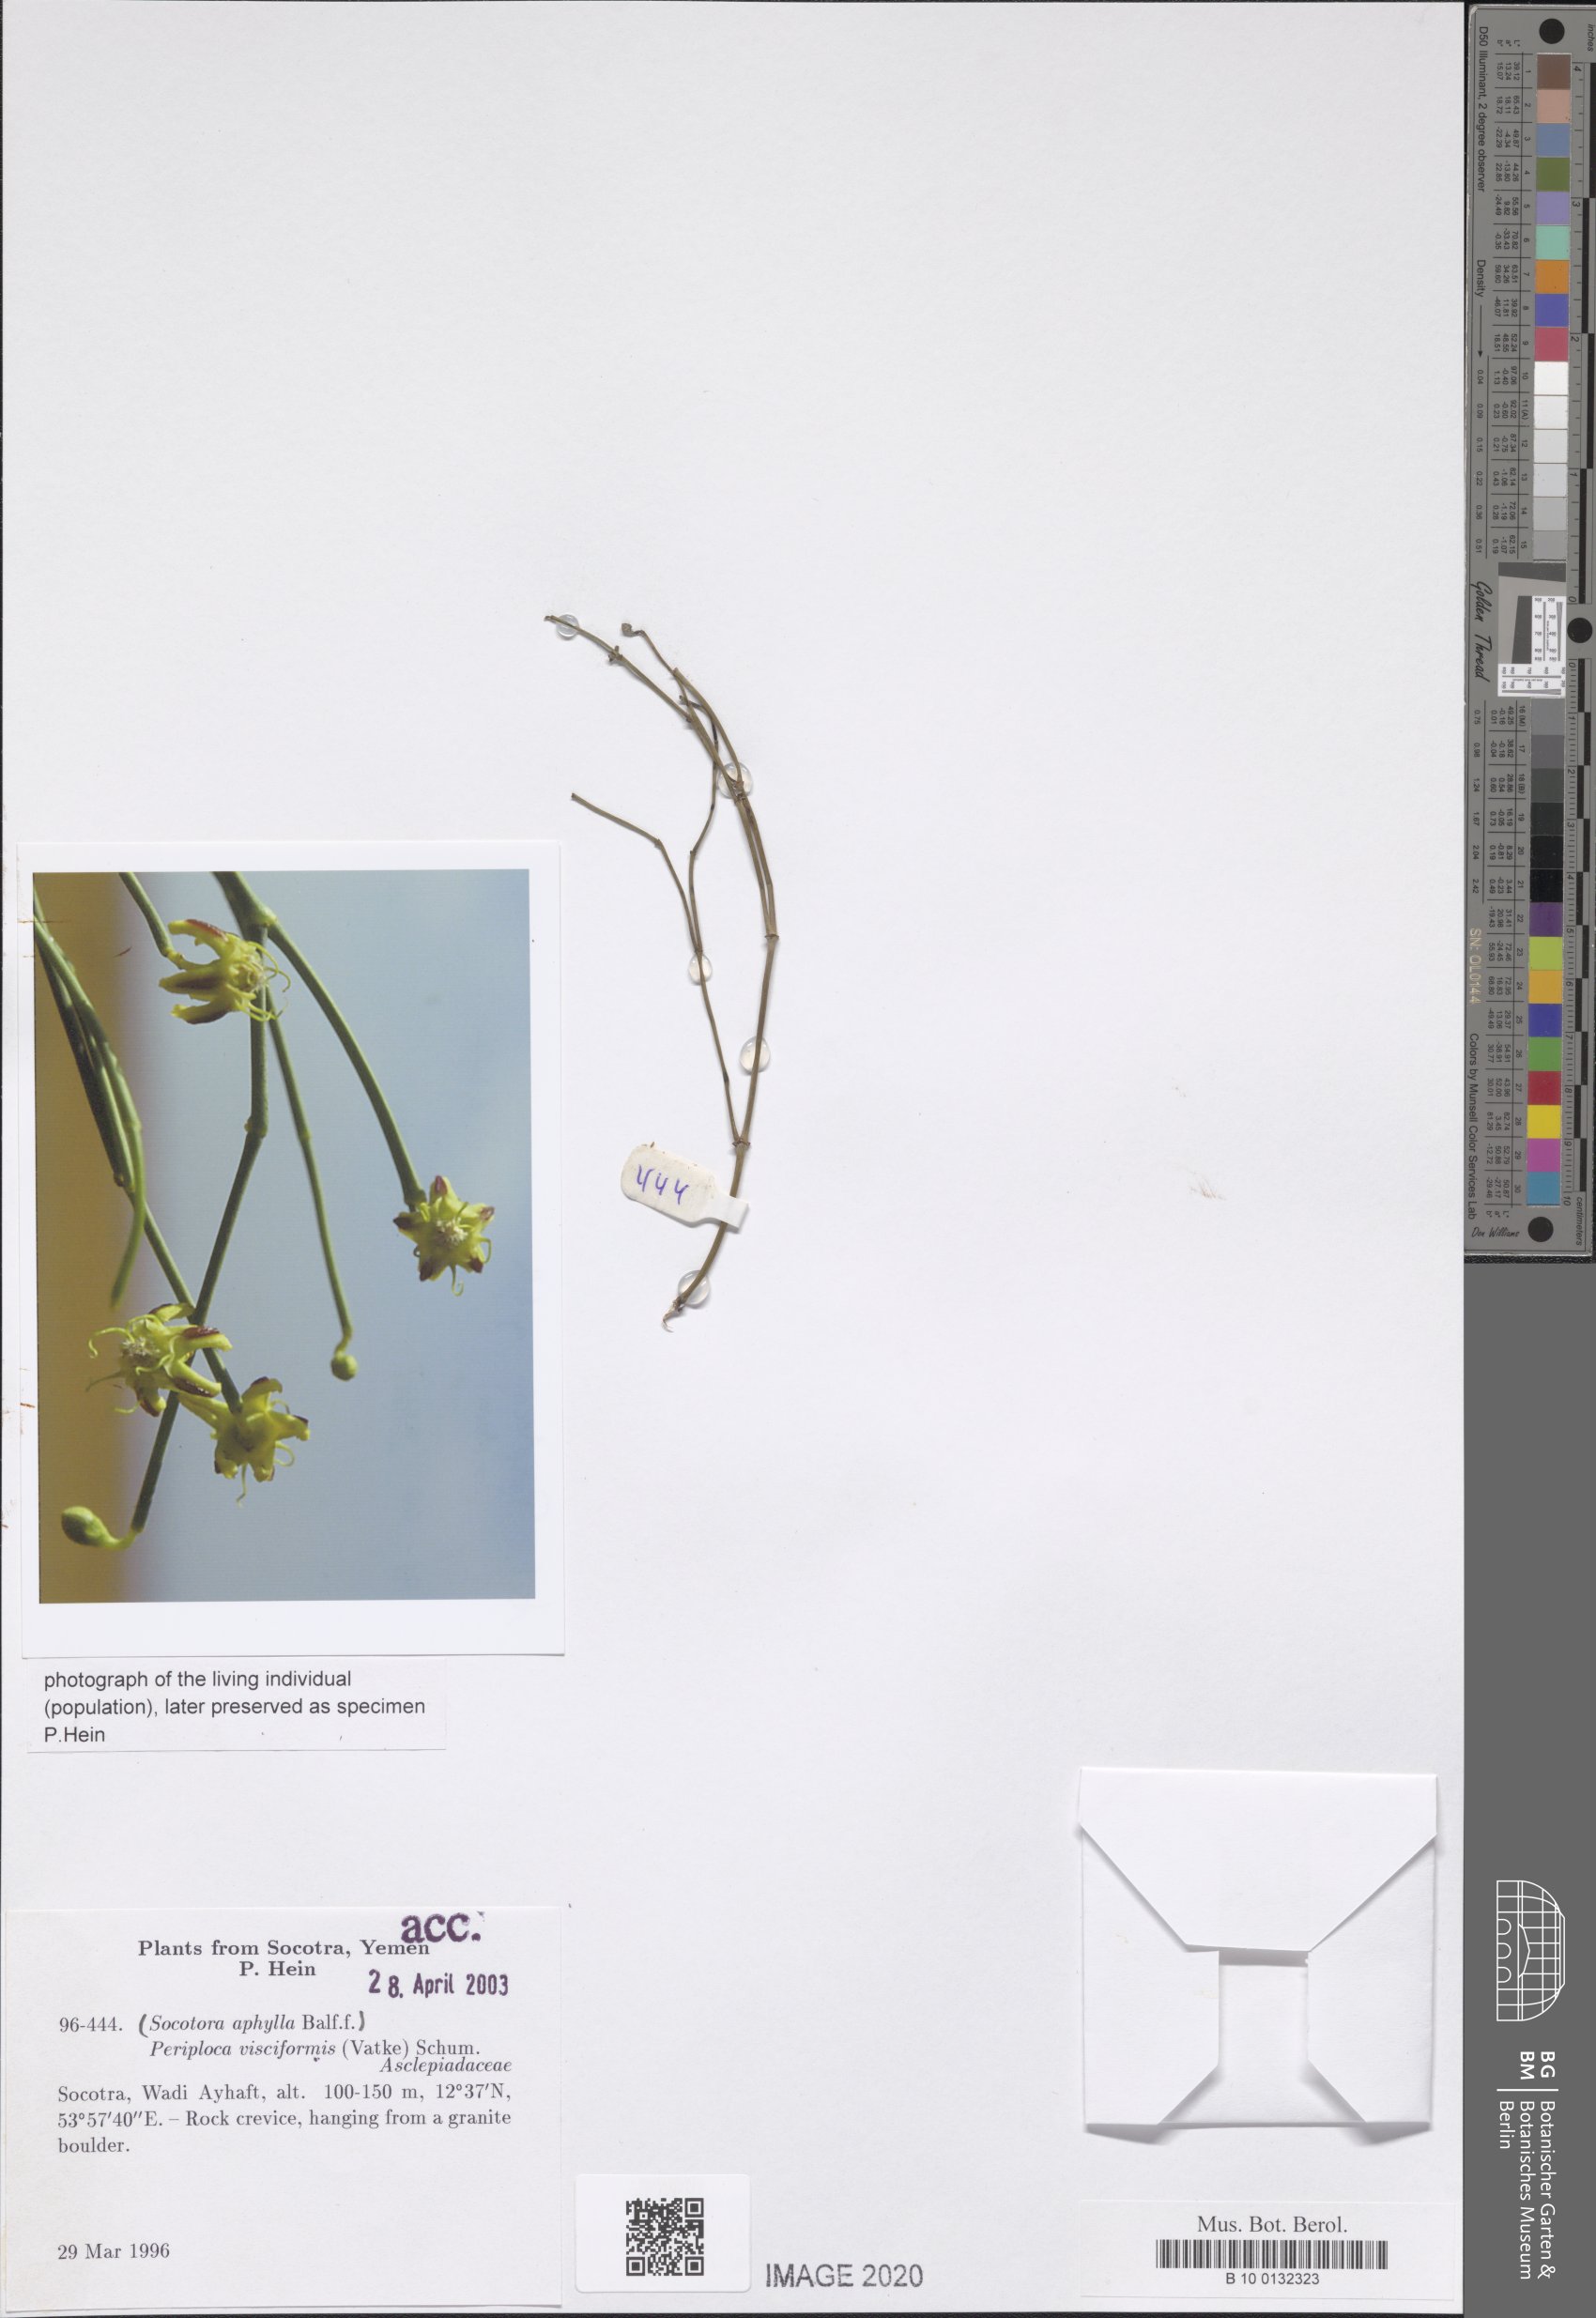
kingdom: Plantae
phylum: Tracheophyta
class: Magnoliopsida
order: Gentianales
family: Apocynaceae
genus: Periploca
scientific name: Periploca visciformis
